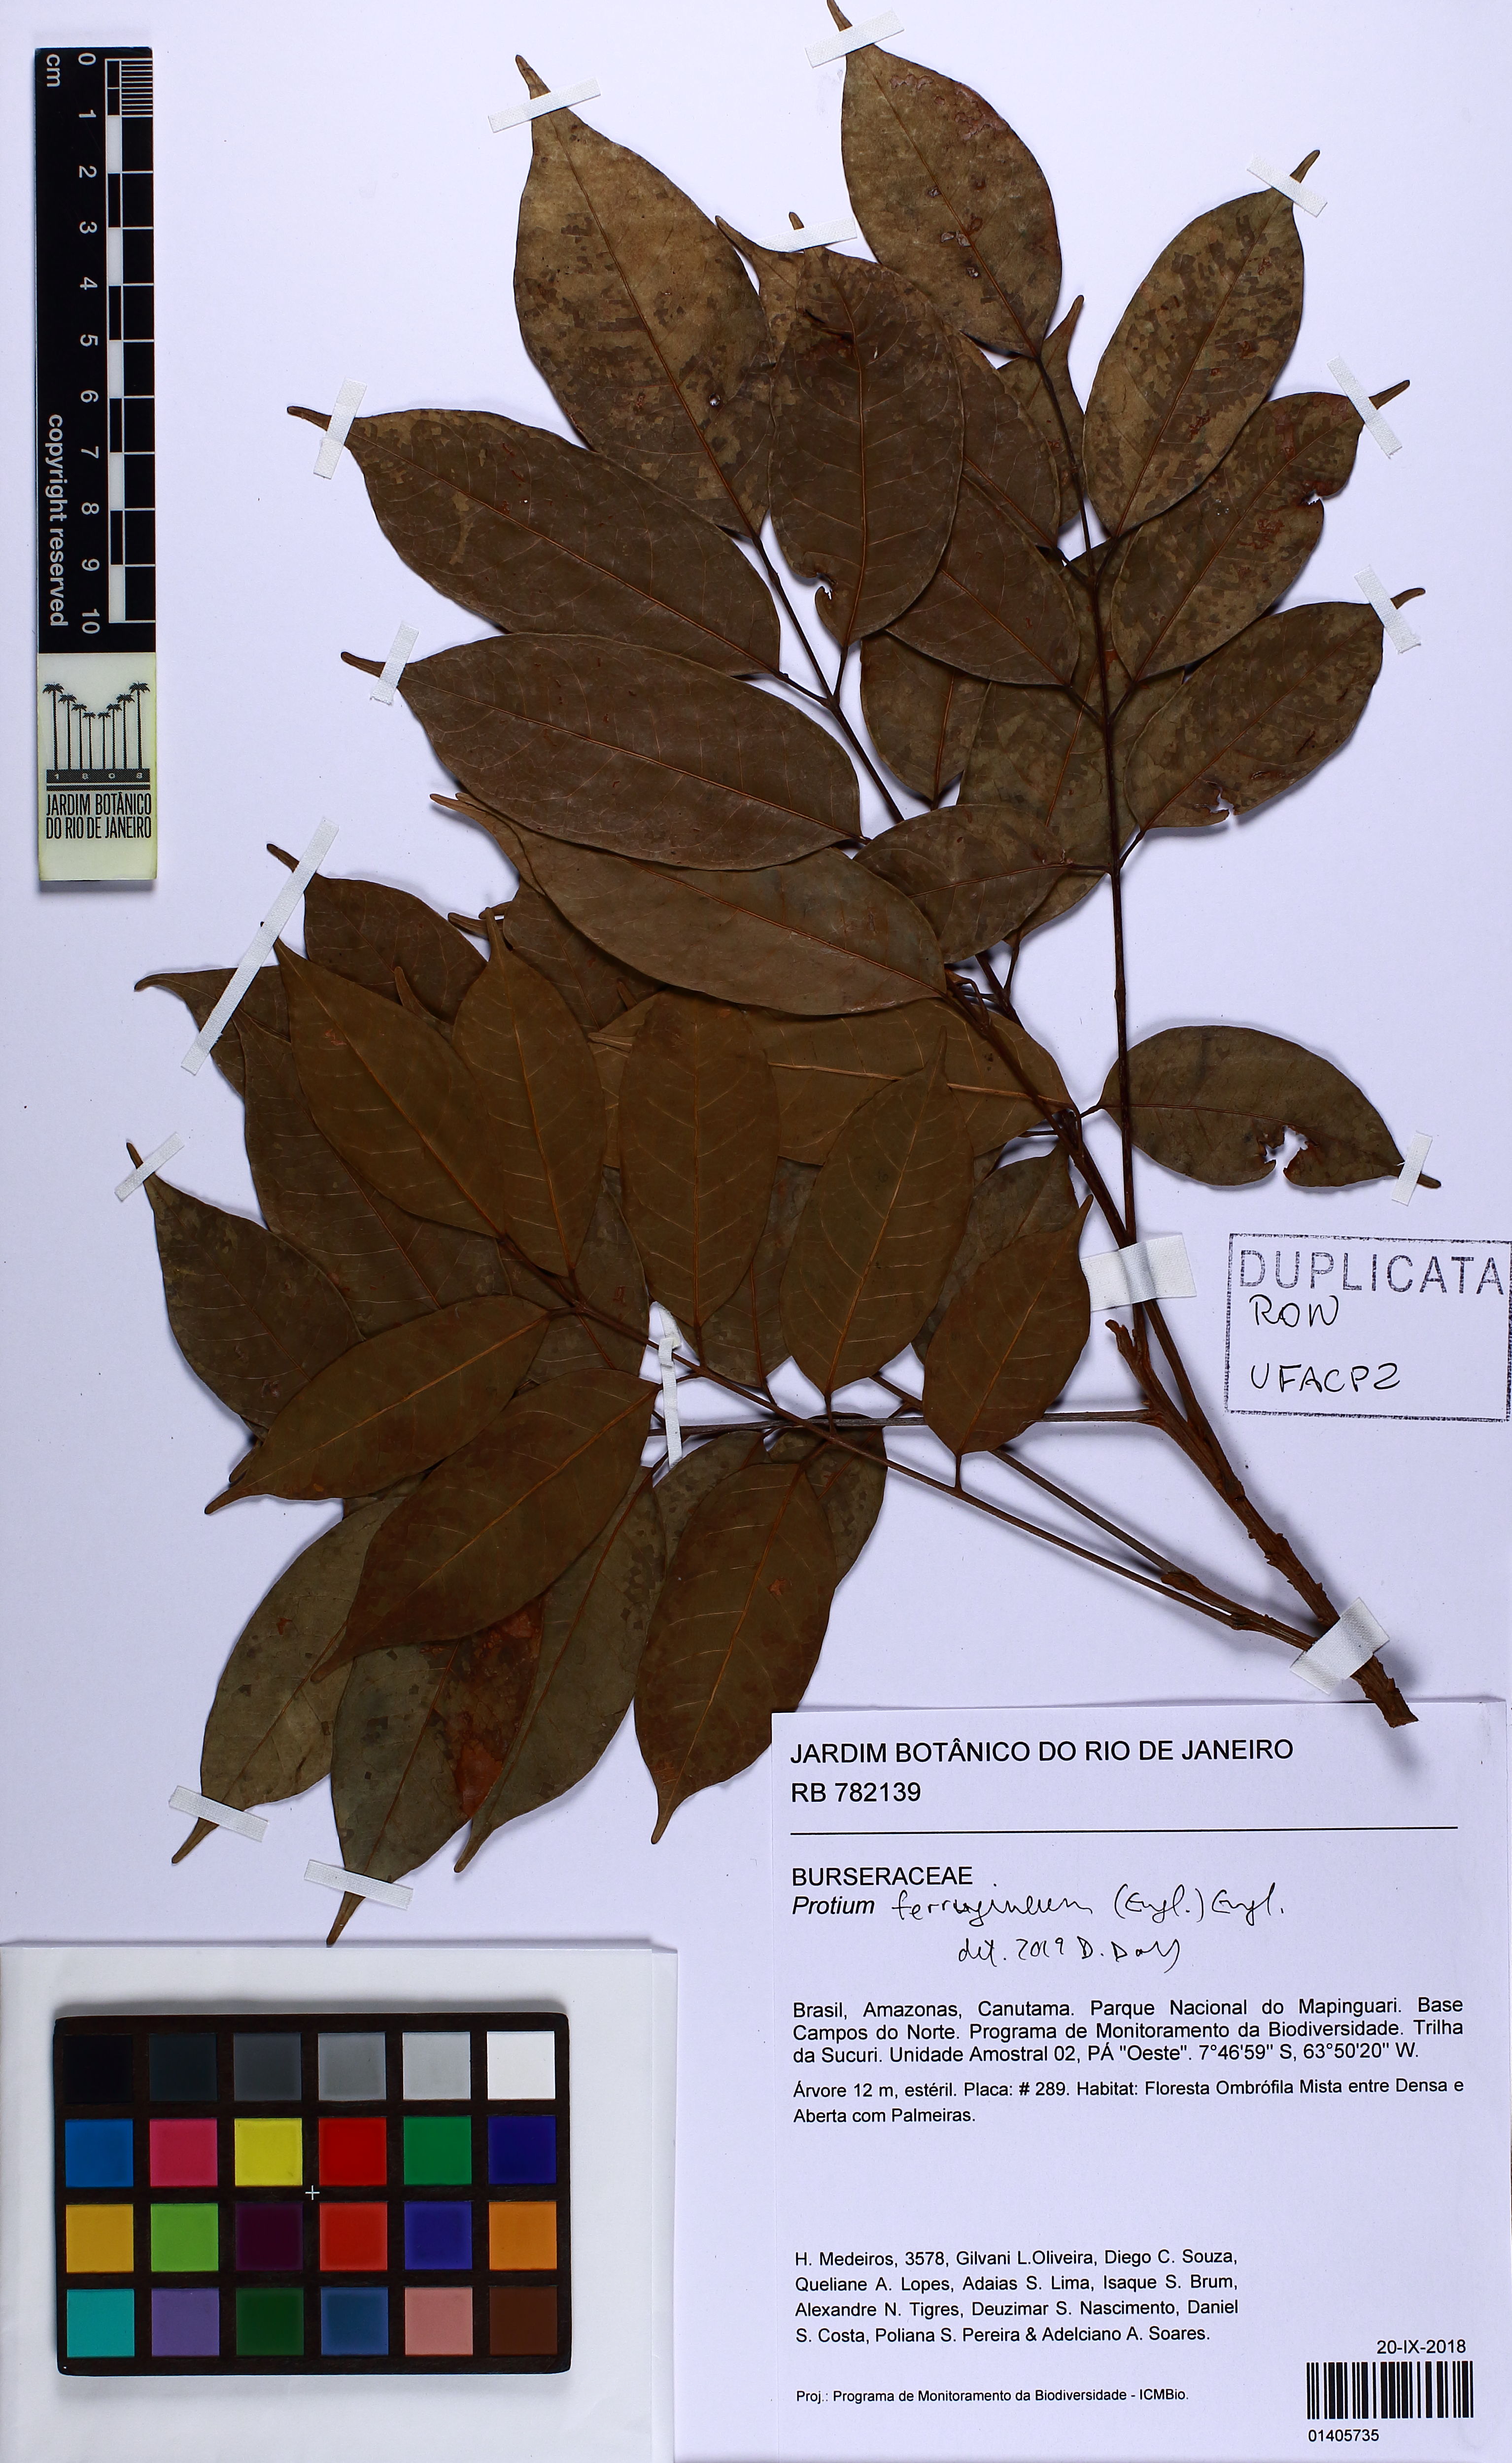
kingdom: Plantae
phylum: Tracheophyta
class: Magnoliopsida
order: Sapindales
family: Burseraceae
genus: Protium
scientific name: Protium ferrugineum
